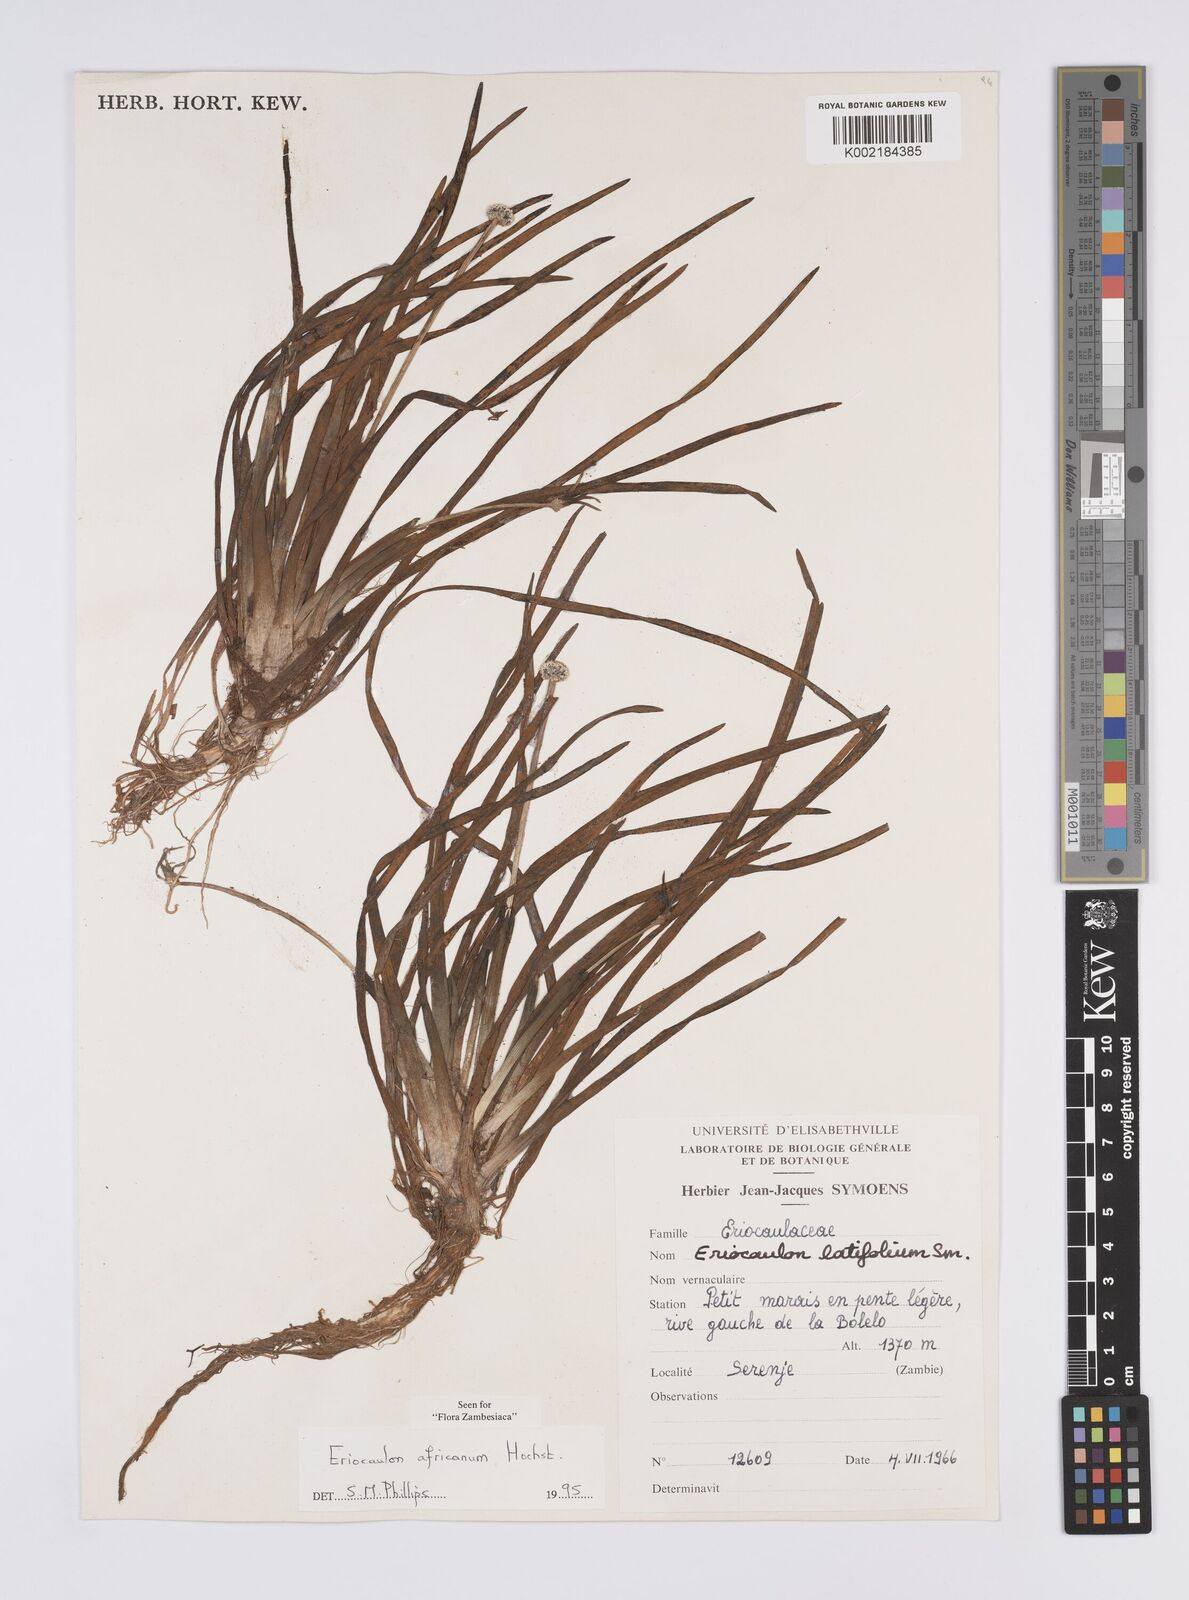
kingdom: Plantae
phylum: Tracheophyta
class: Liliopsida
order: Poales
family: Eriocaulaceae
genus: Eriocaulon
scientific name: Eriocaulon africanum
